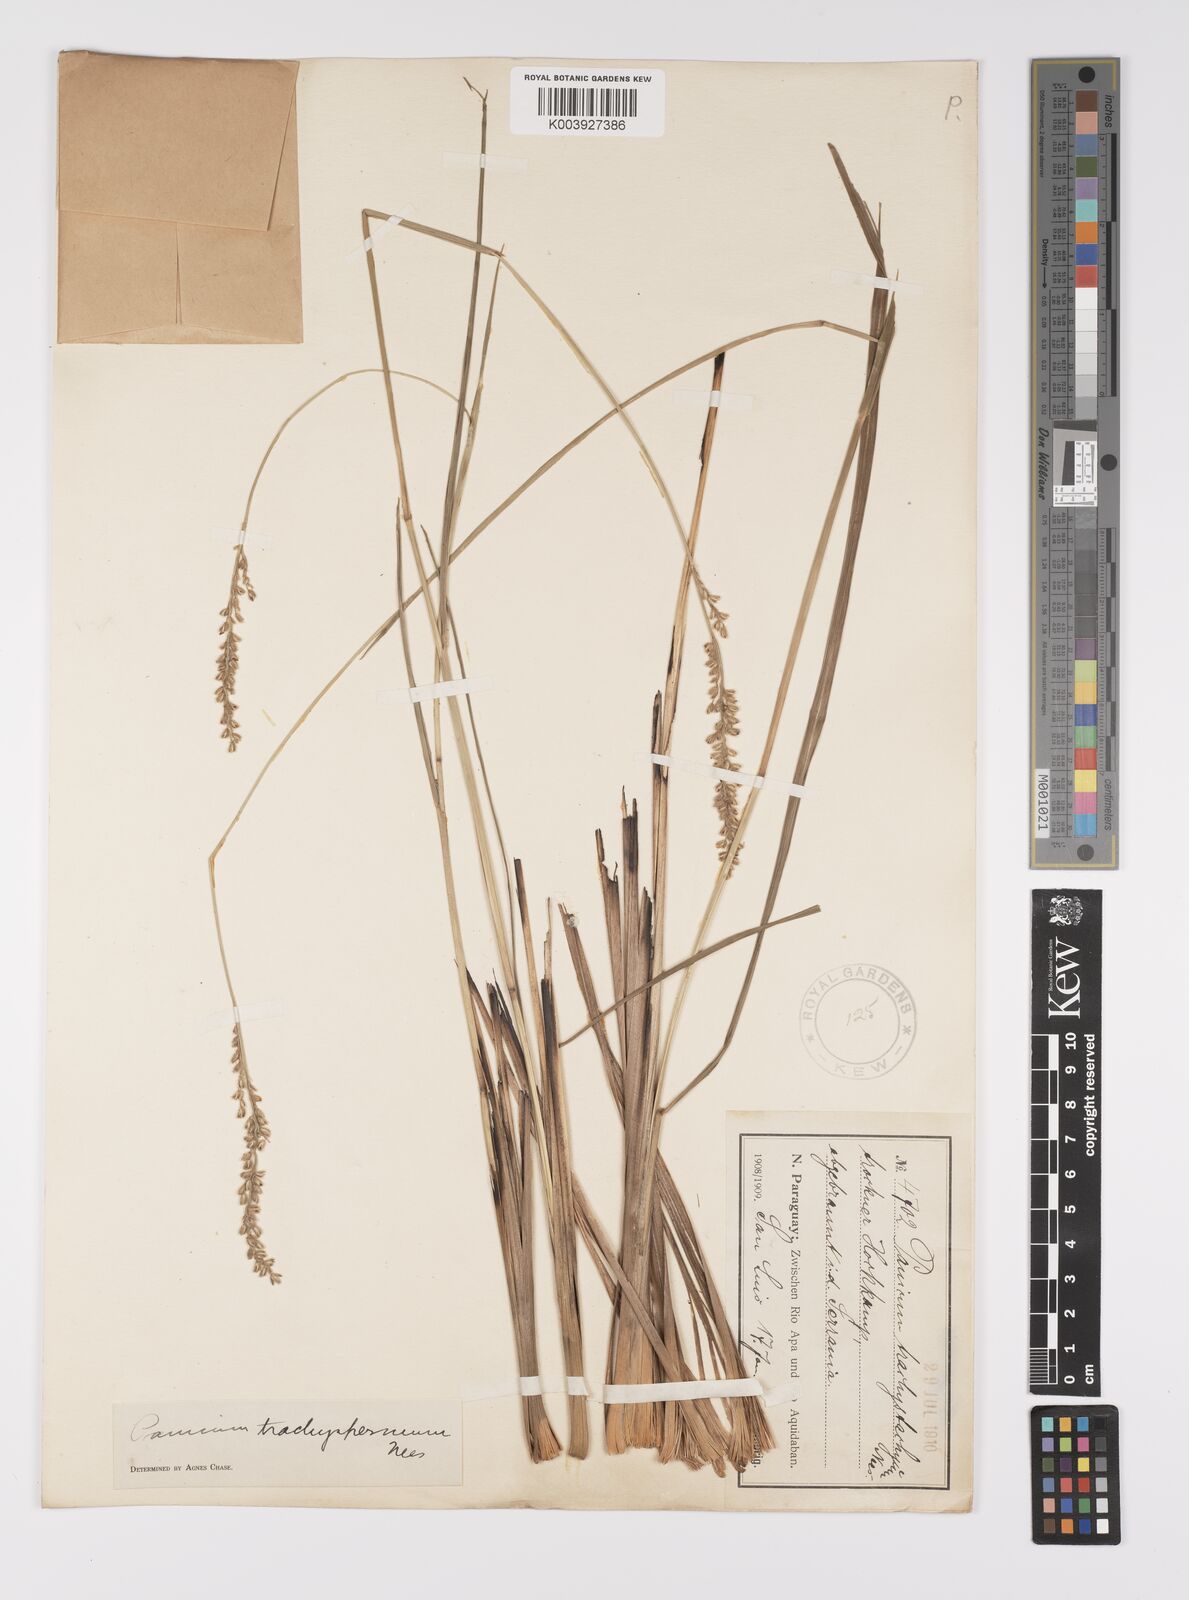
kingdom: Plantae
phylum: Tracheophyta
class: Liliopsida
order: Poales
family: Poaceae
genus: Anthaenantiopsis
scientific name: Anthaenantiopsis perforata
